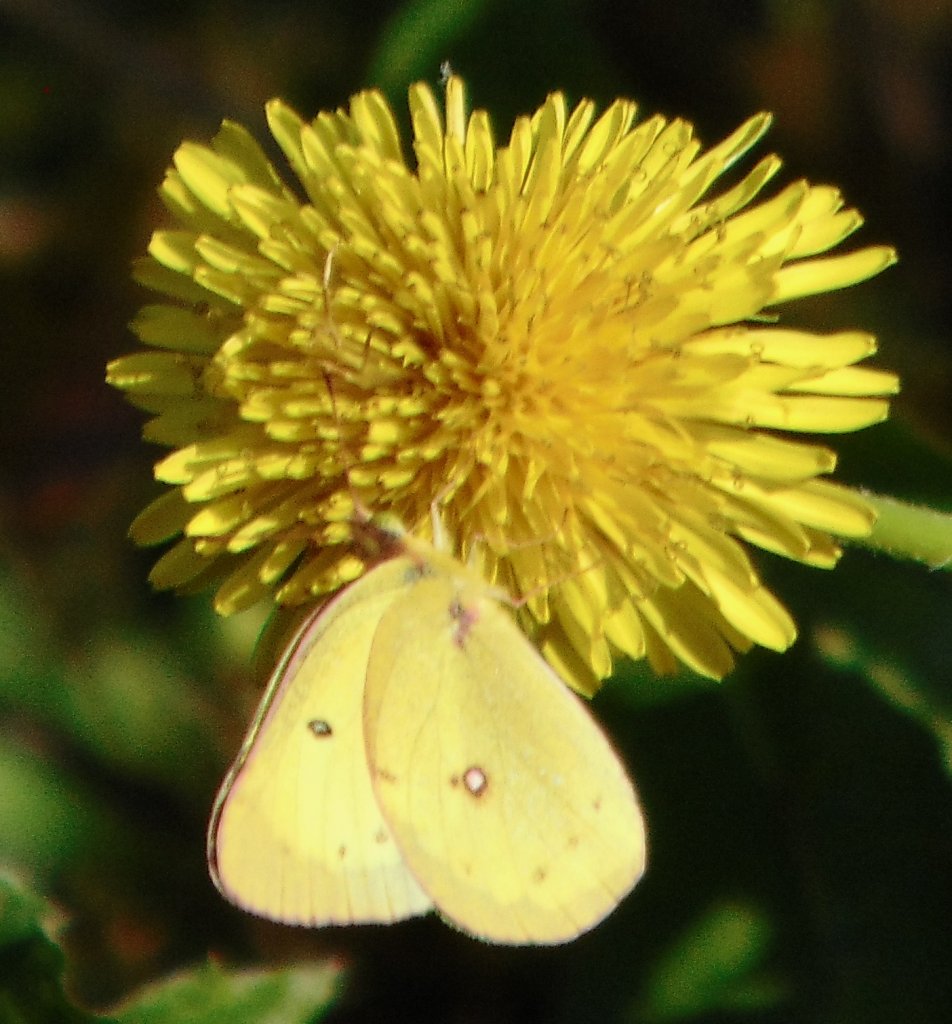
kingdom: Animalia
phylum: Arthropoda
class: Insecta
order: Lepidoptera
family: Pieridae
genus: Colias
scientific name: Colias philodice
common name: Clouded Sulphur
